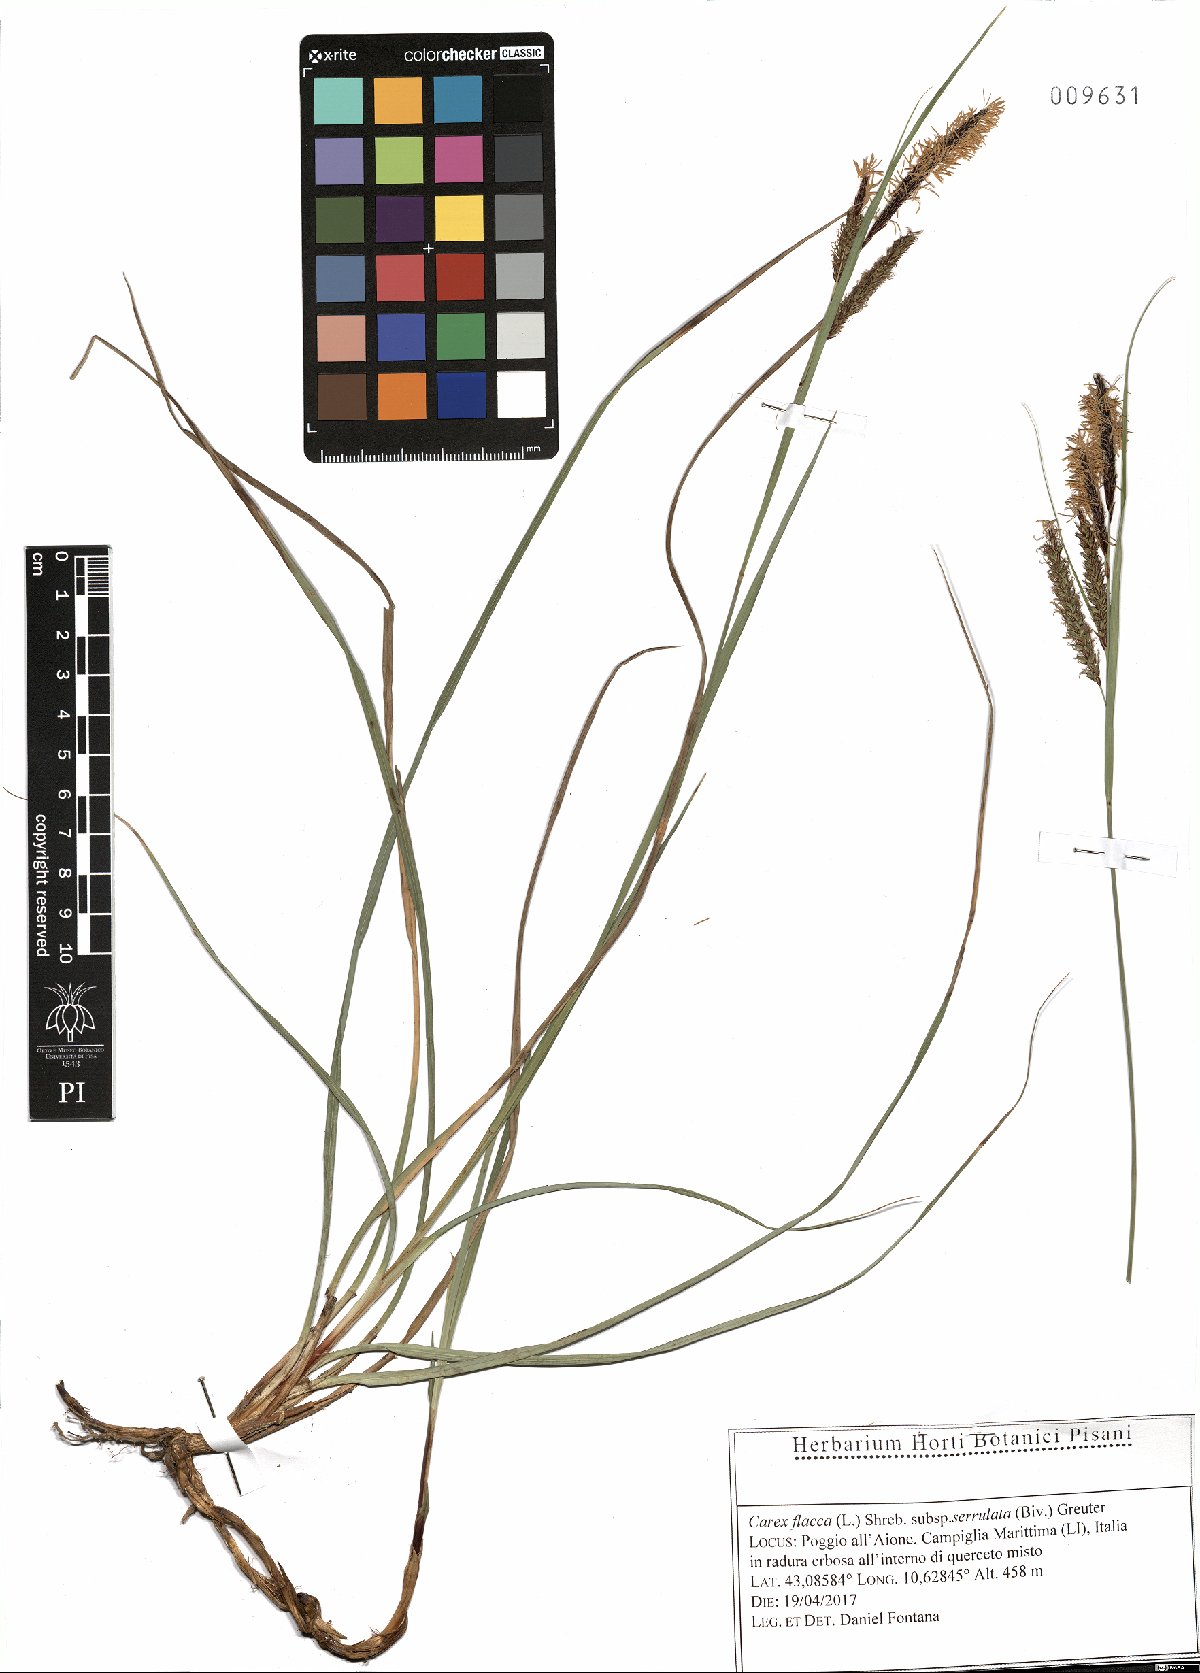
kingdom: Plantae
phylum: Tracheophyta
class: Liliopsida
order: Poales
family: Cyperaceae
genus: Carex
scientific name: Carex flacca
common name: Glaucous sedge
